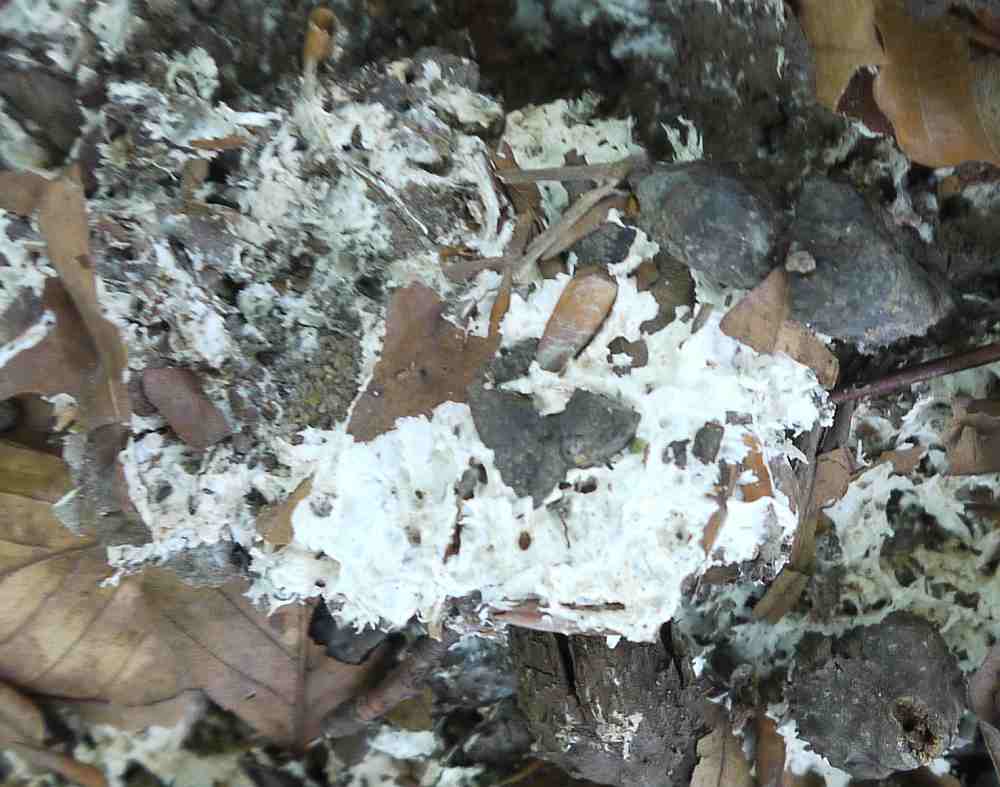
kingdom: Fungi
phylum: Basidiomycota
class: Agaricomycetes
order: Trechisporales
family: Sistotremataceae
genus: Trechispora
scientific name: Trechispora fastidiosa
